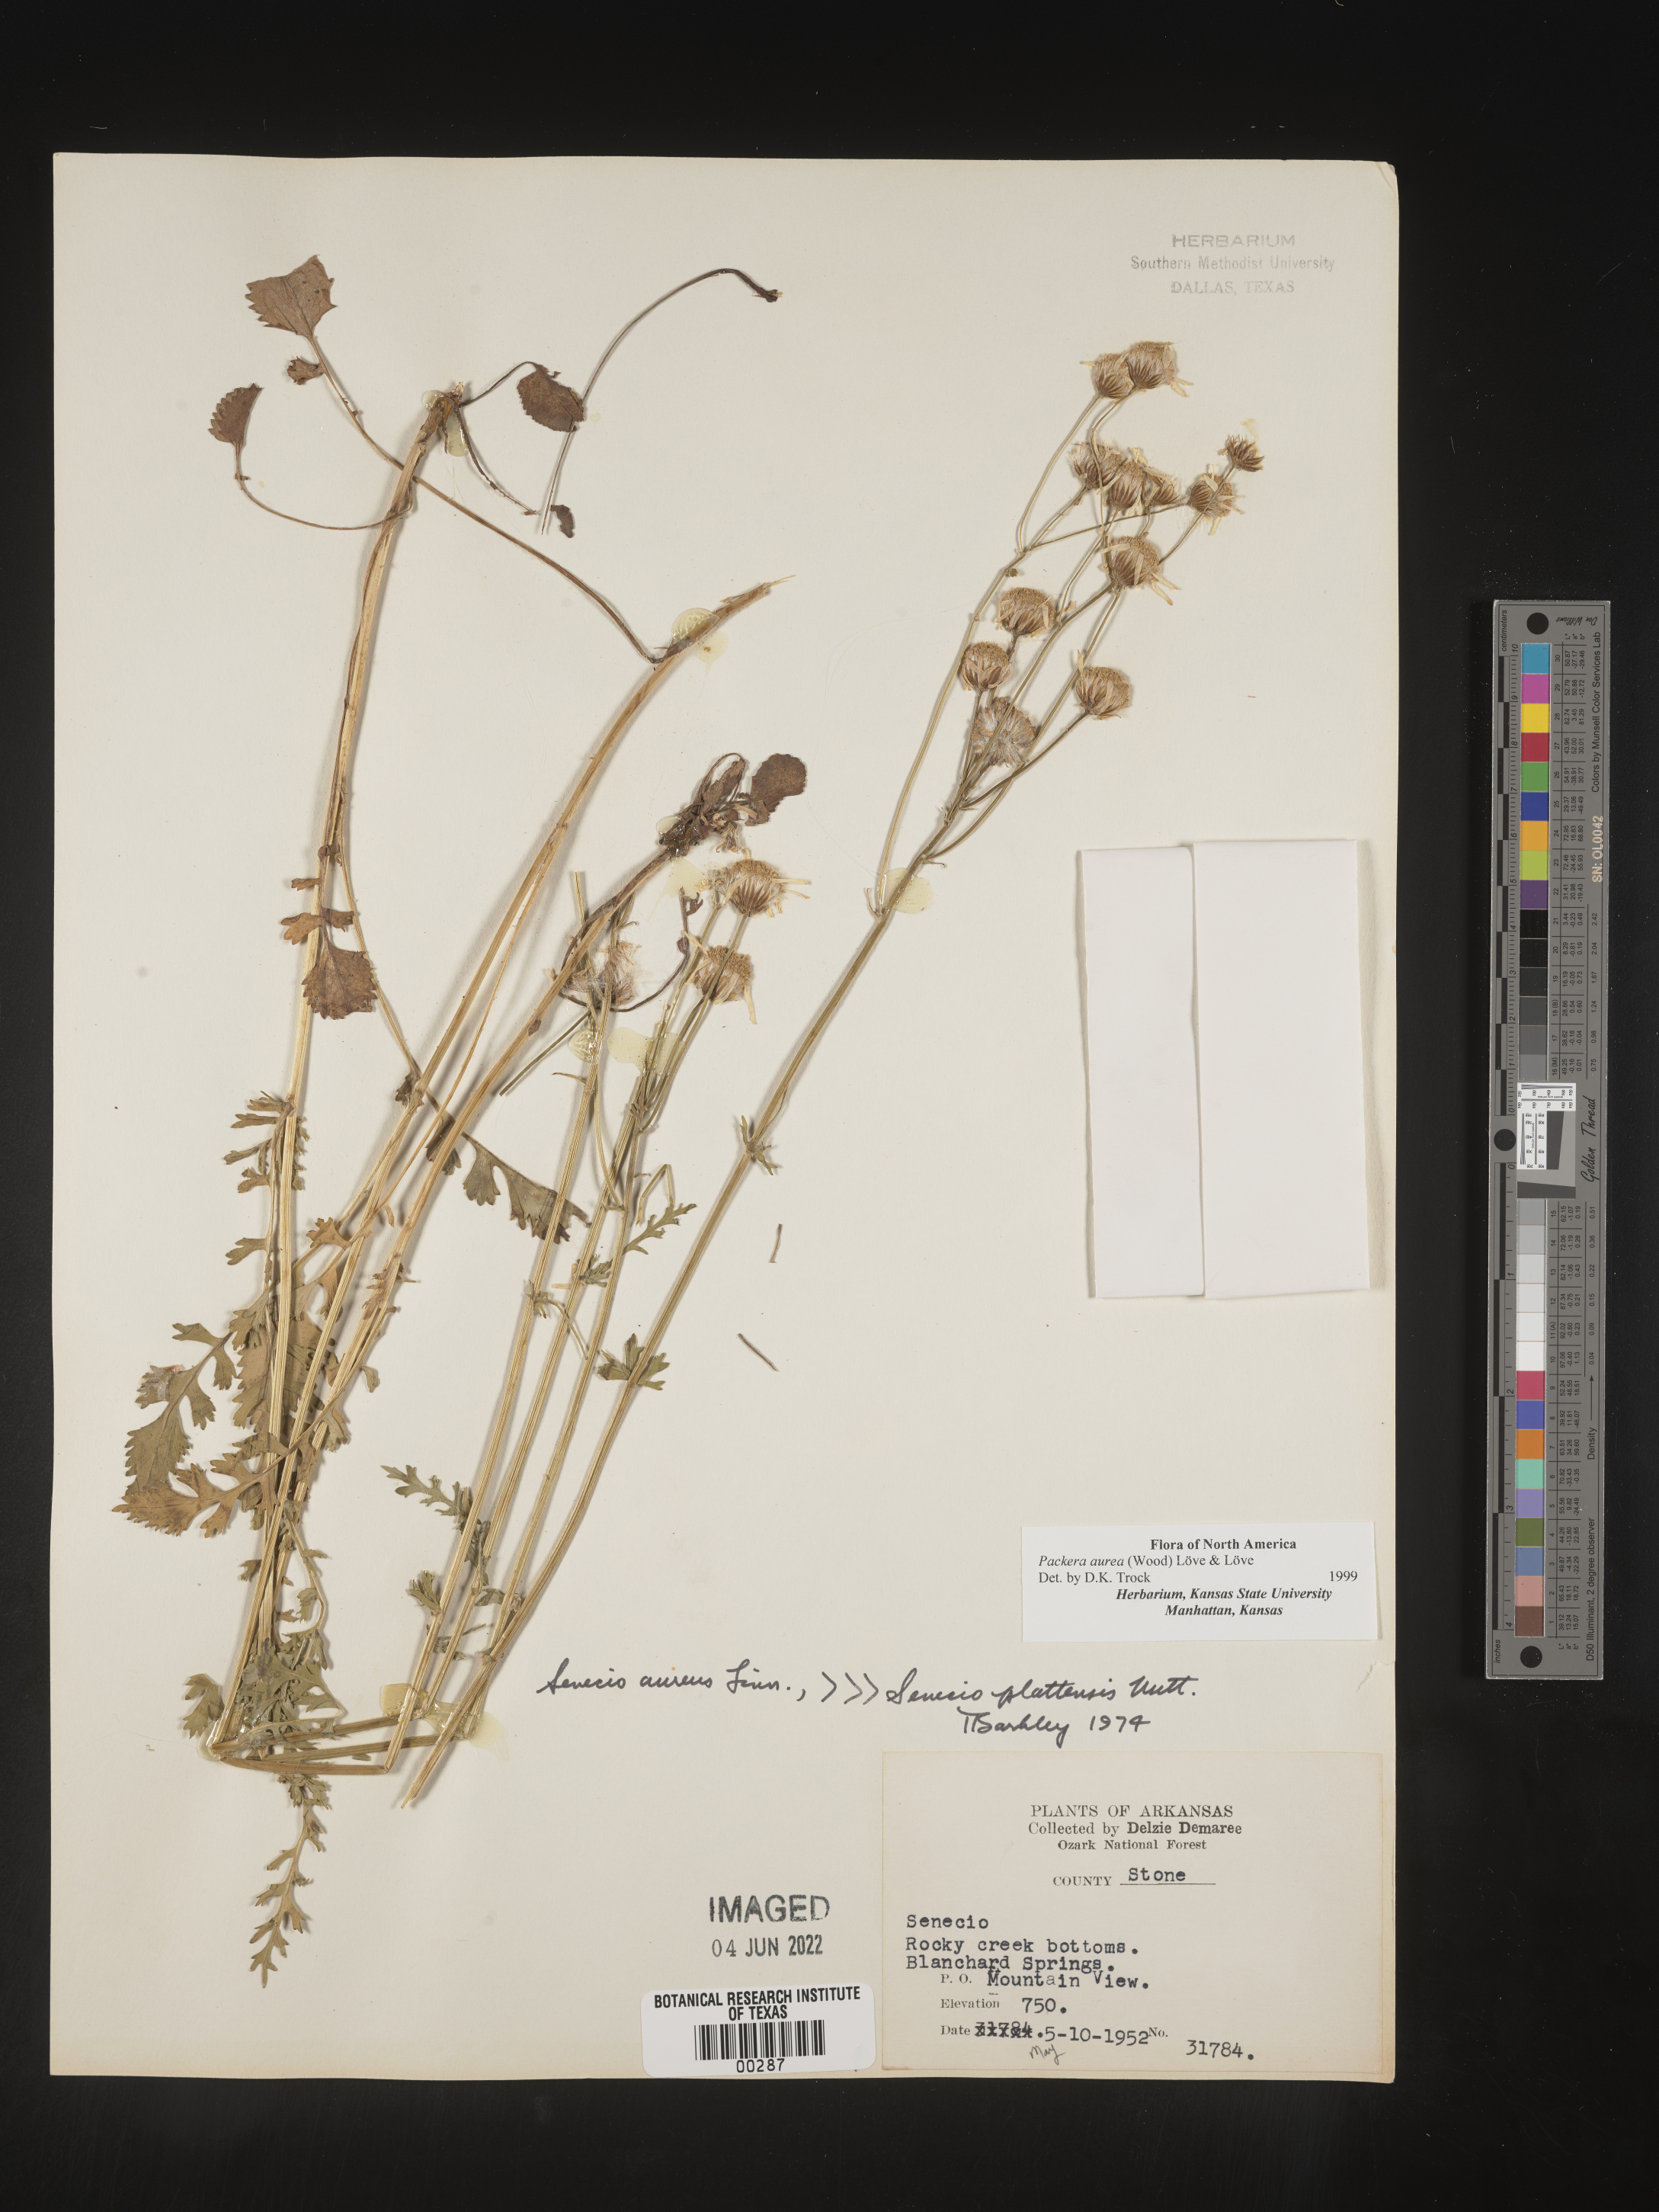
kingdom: Plantae
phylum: Tracheophyta
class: Magnoliopsida
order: Asterales
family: Asteraceae
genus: Packera
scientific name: Packera aurea
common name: Golden groundsel
